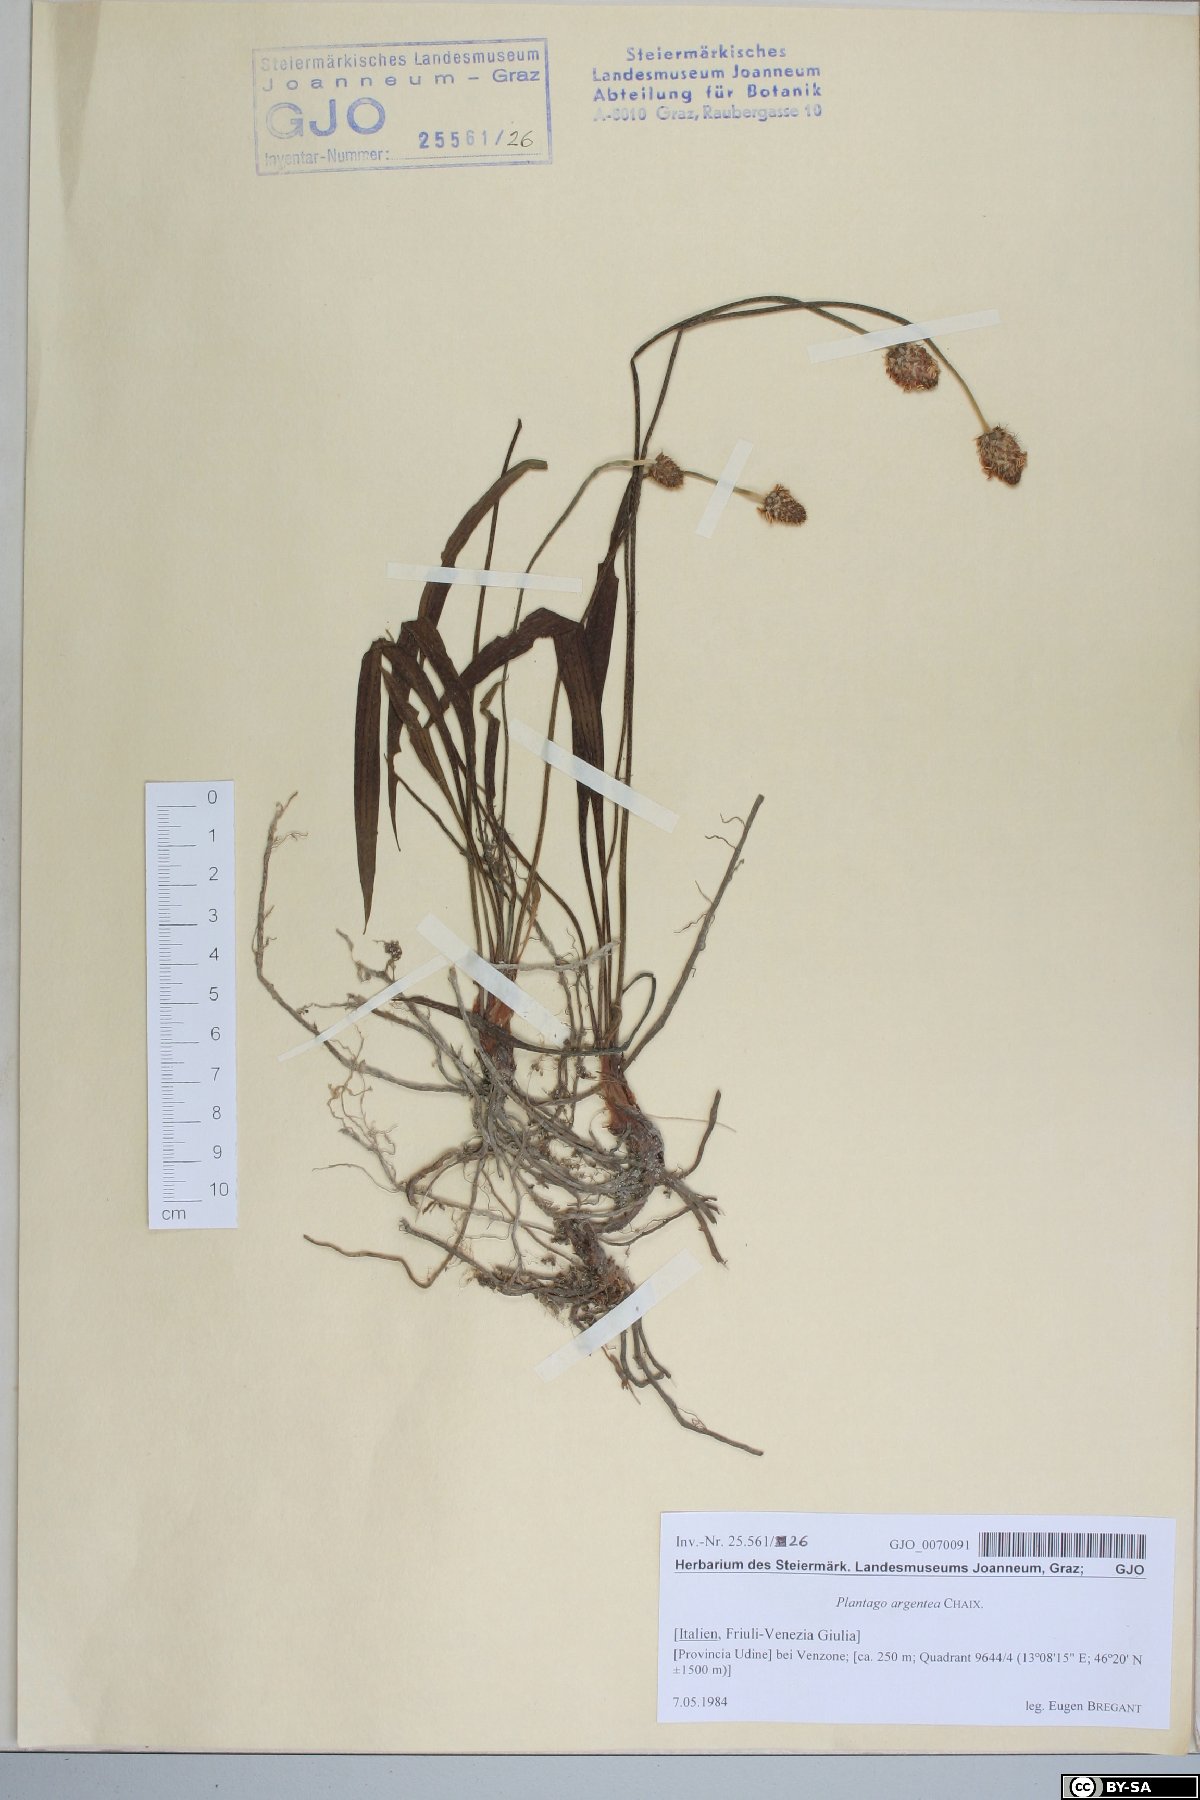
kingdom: Plantae
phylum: Tracheophyta
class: Magnoliopsida
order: Lamiales
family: Plantaginaceae
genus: Plantago
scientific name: Plantago argentea
